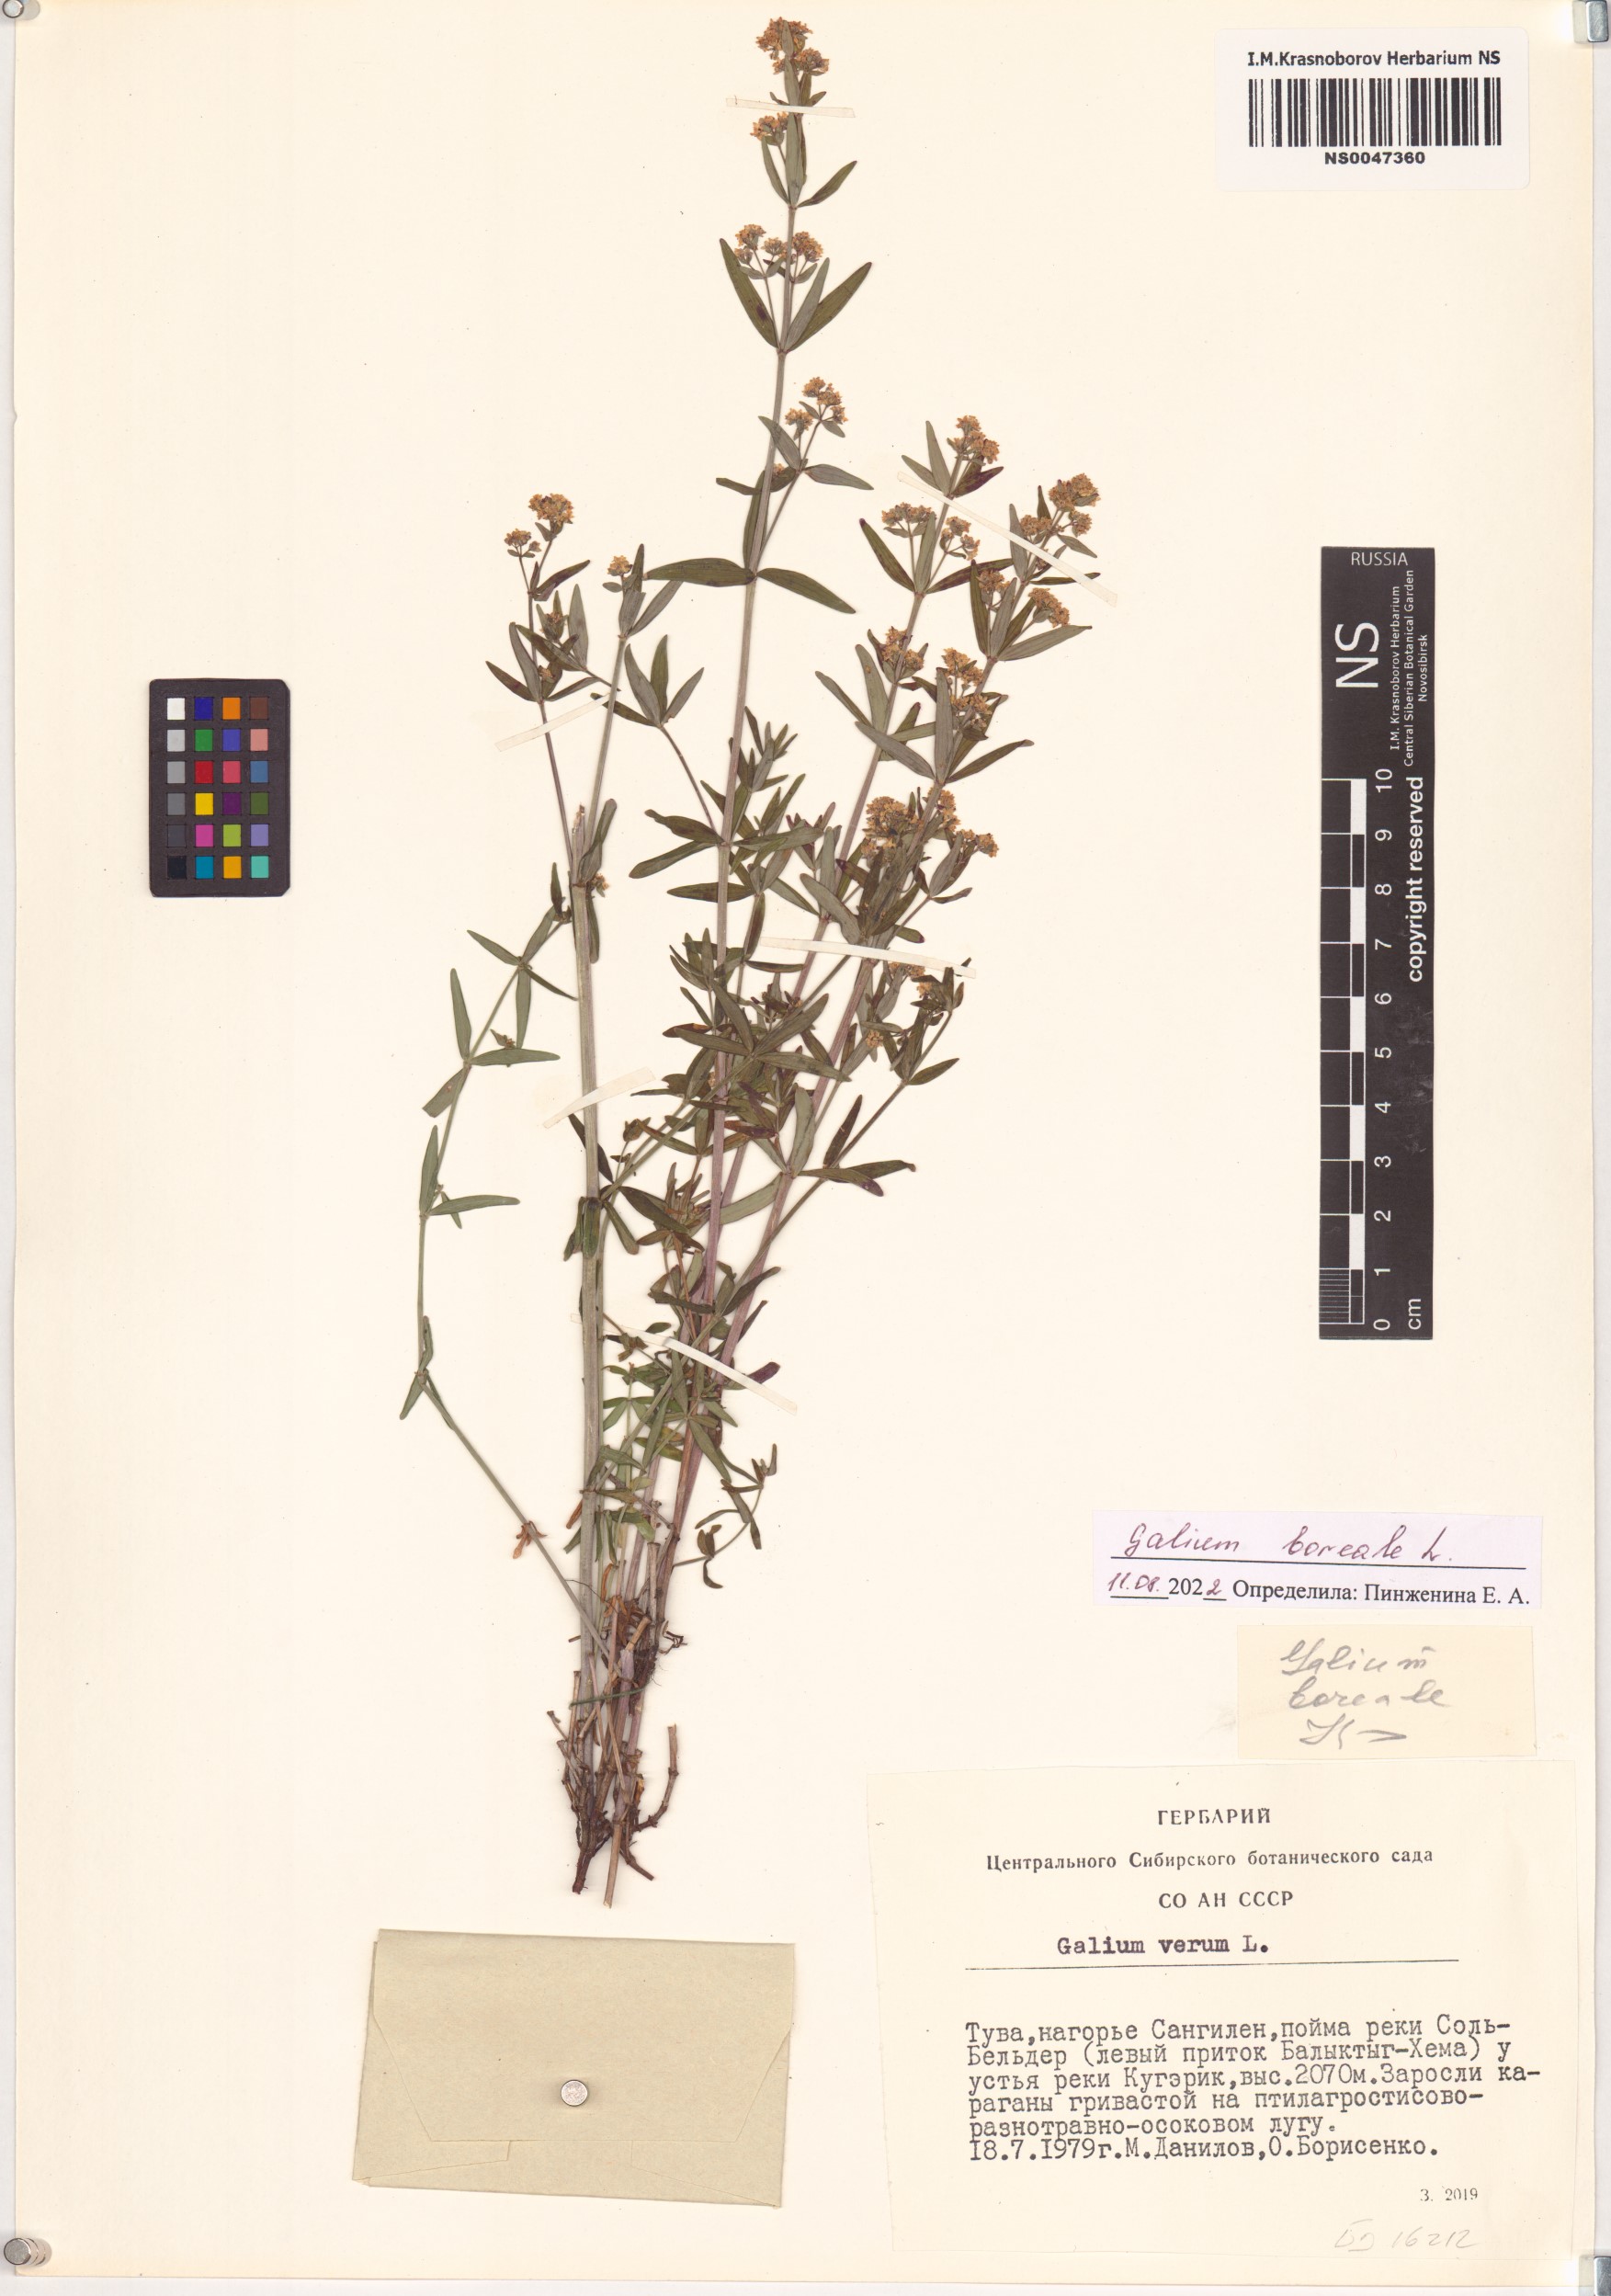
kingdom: Plantae
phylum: Tracheophyta
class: Magnoliopsida
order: Gentianales
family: Rubiaceae
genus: Galium
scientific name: Galium boreale
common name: Northern bedstraw
